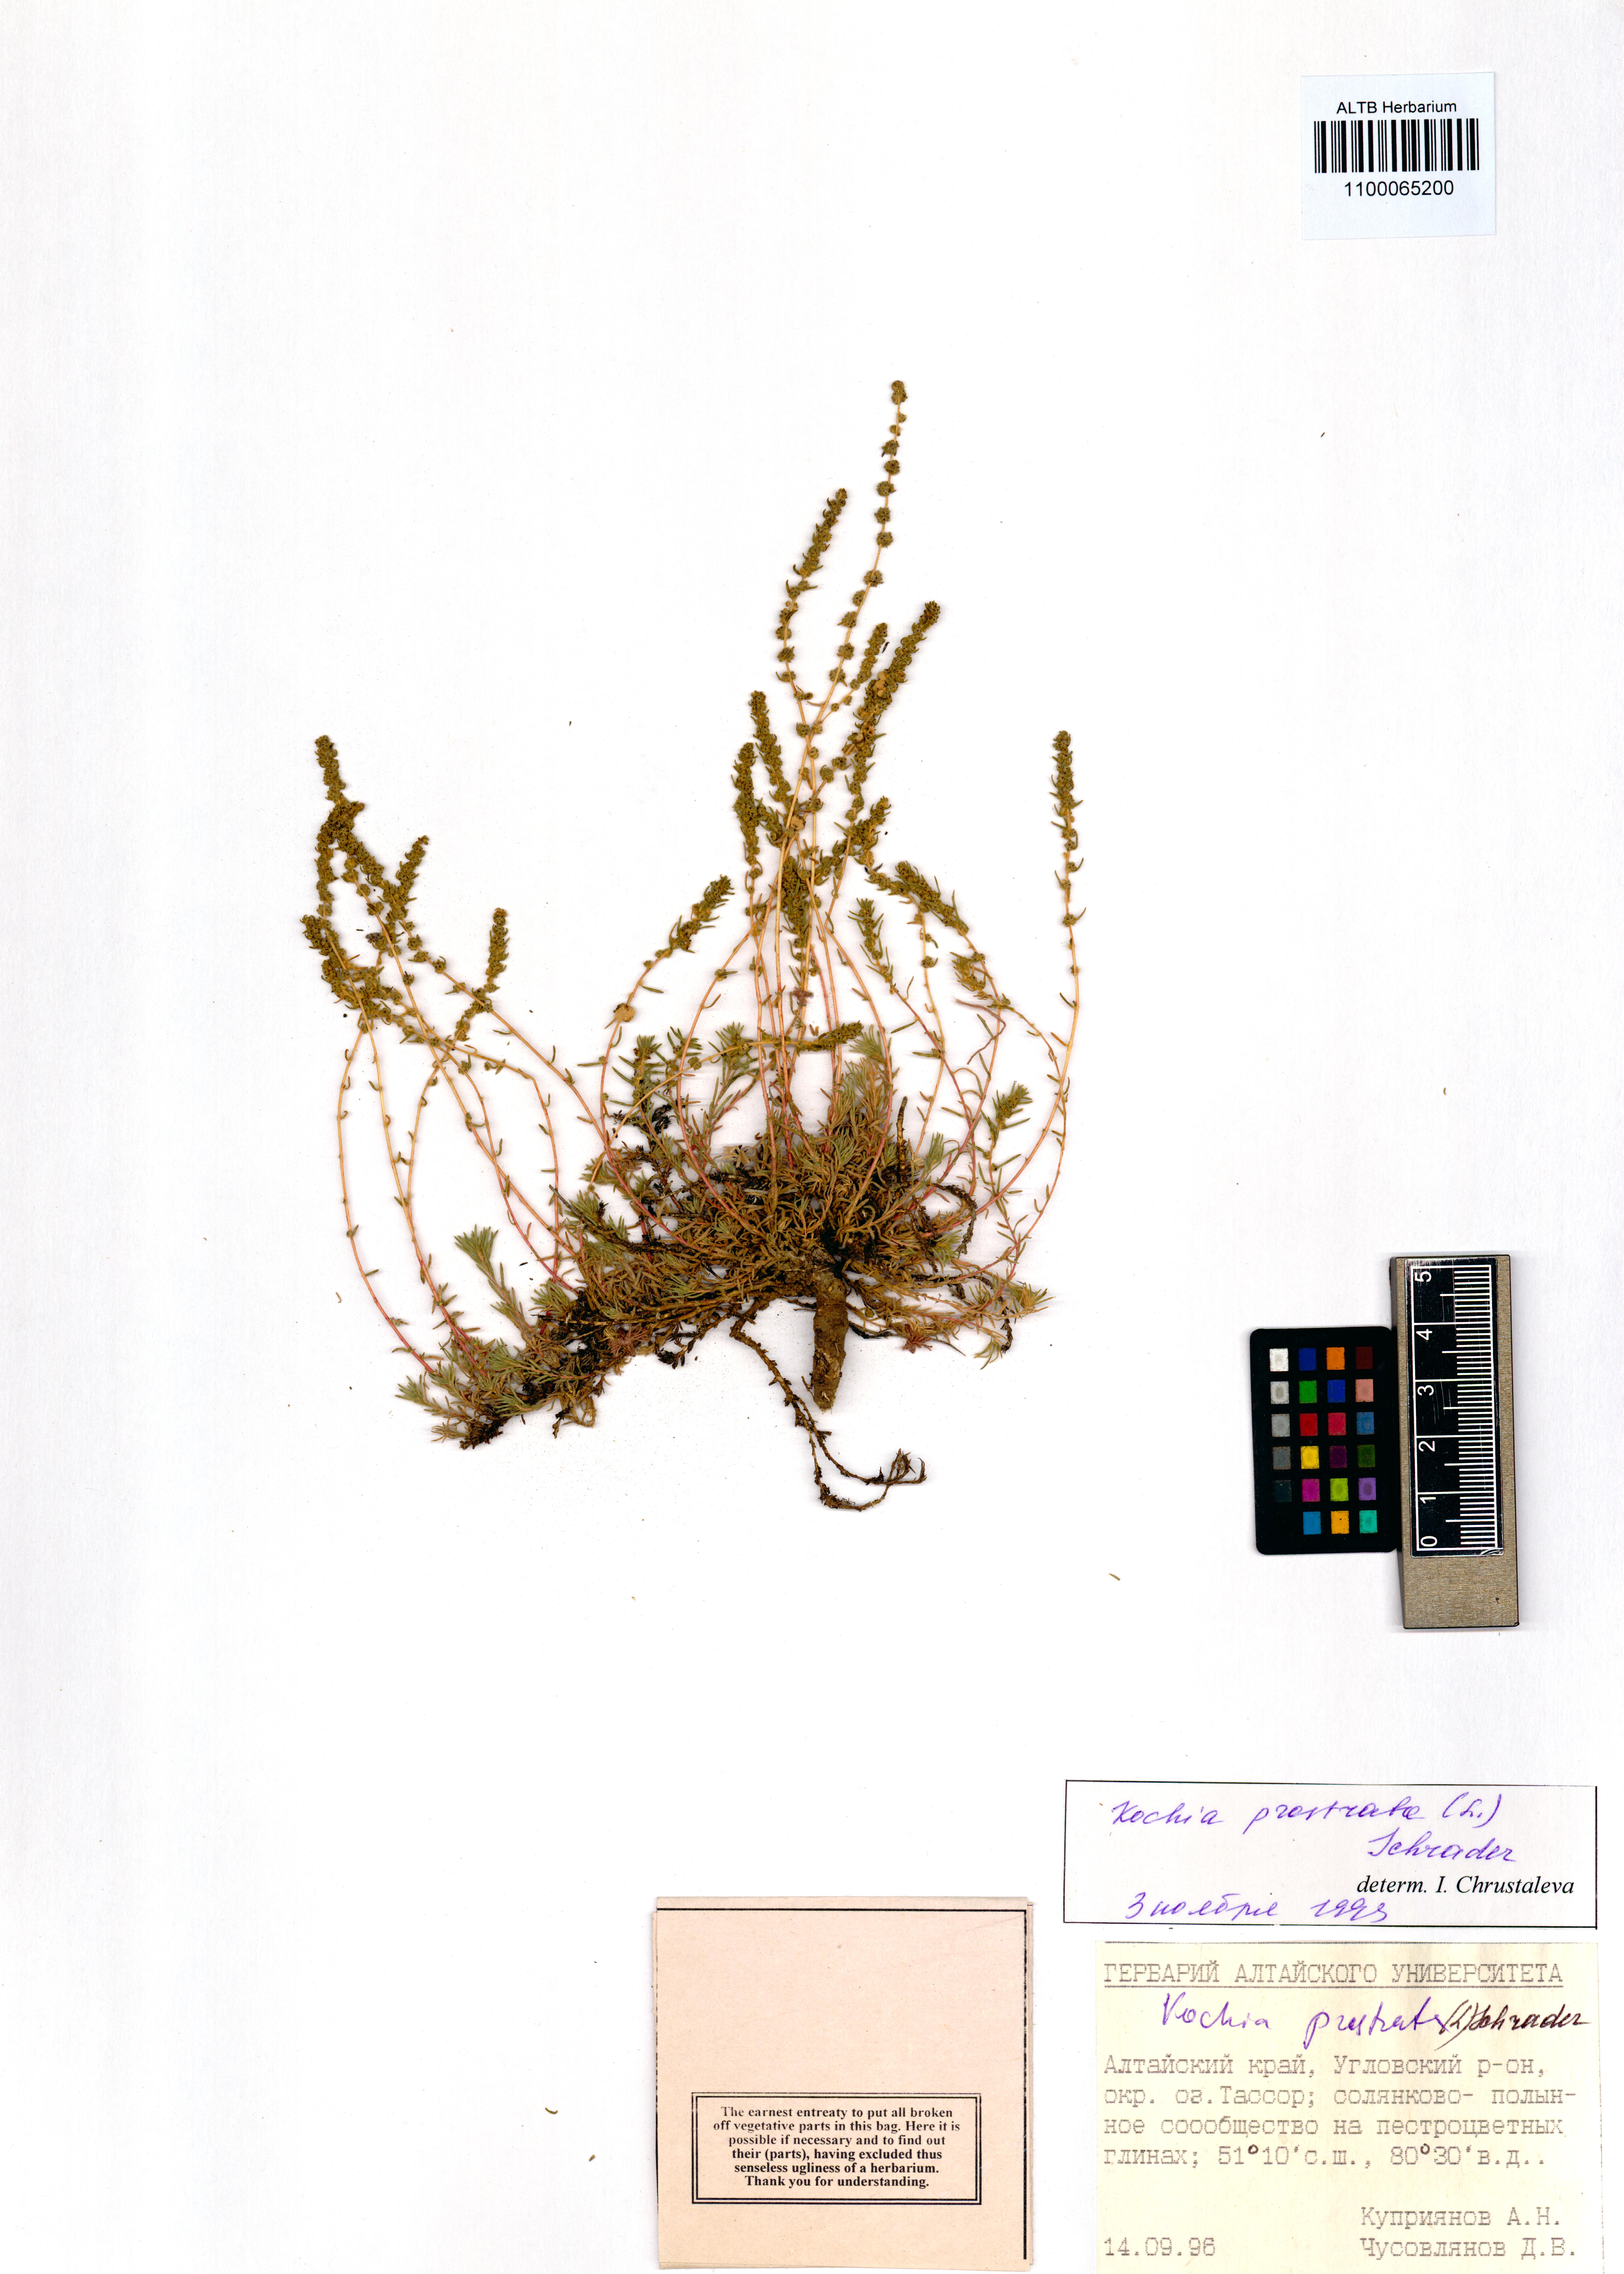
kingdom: Plantae
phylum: Tracheophyta
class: Magnoliopsida
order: Caryophyllales
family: Amaranthaceae
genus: Bassia
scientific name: Bassia prostrata
